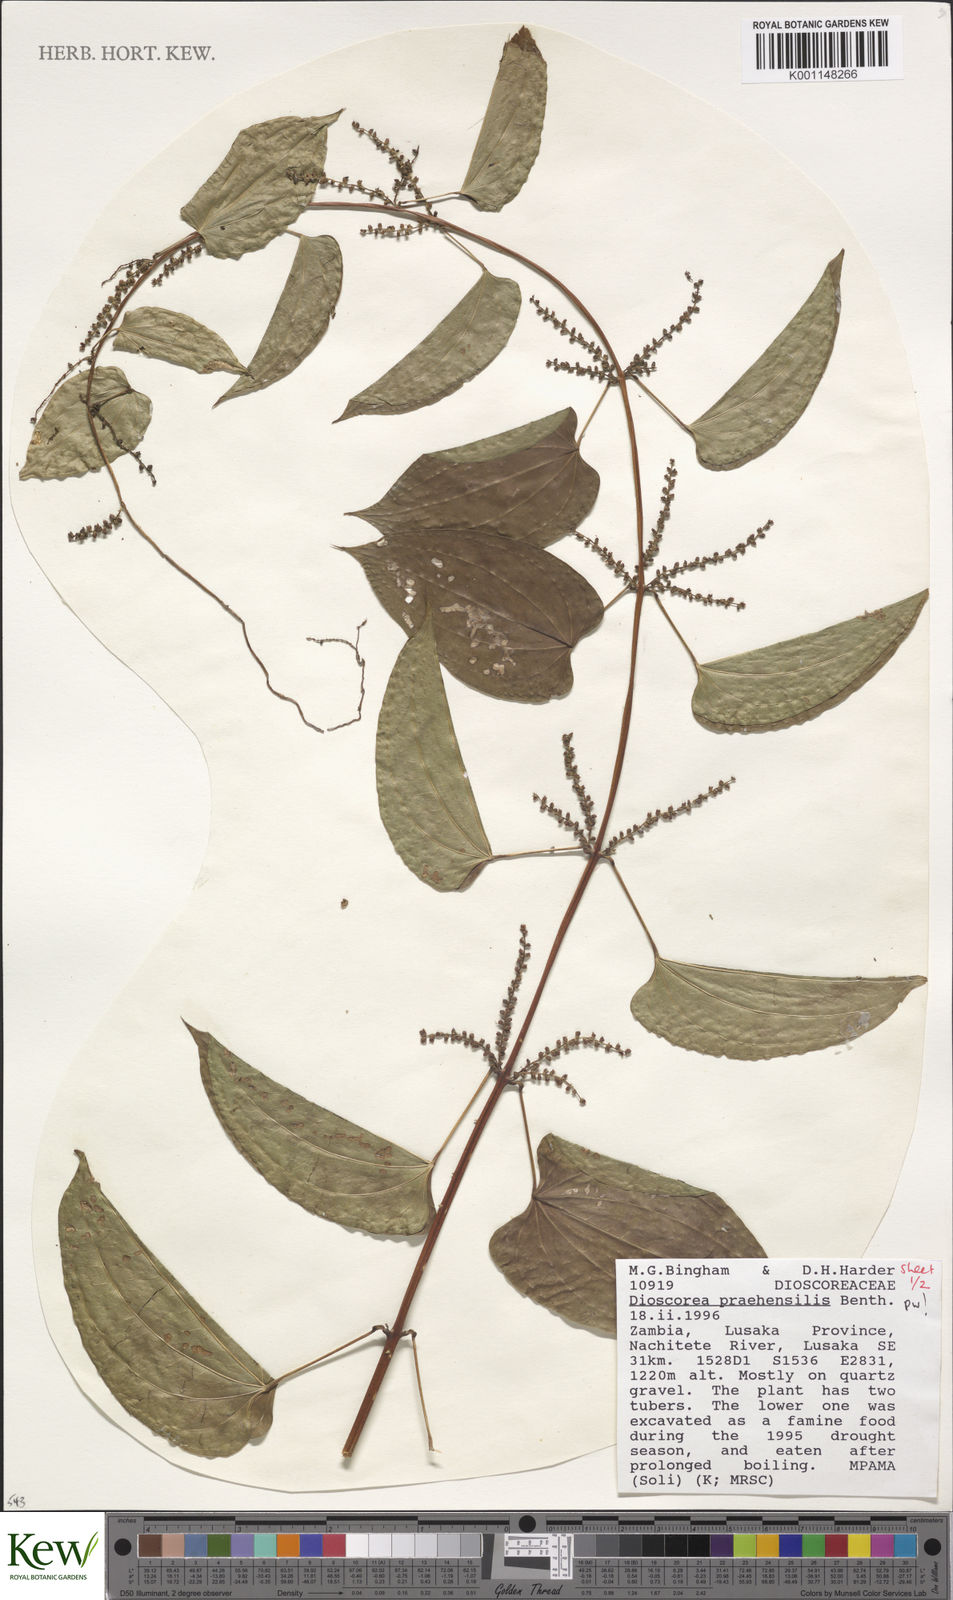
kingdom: Plantae
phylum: Tracheophyta
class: Liliopsida
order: Dioscoreales
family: Dioscoreaceae
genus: Dioscorea
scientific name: Dioscorea praehensilis
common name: Bush yam
